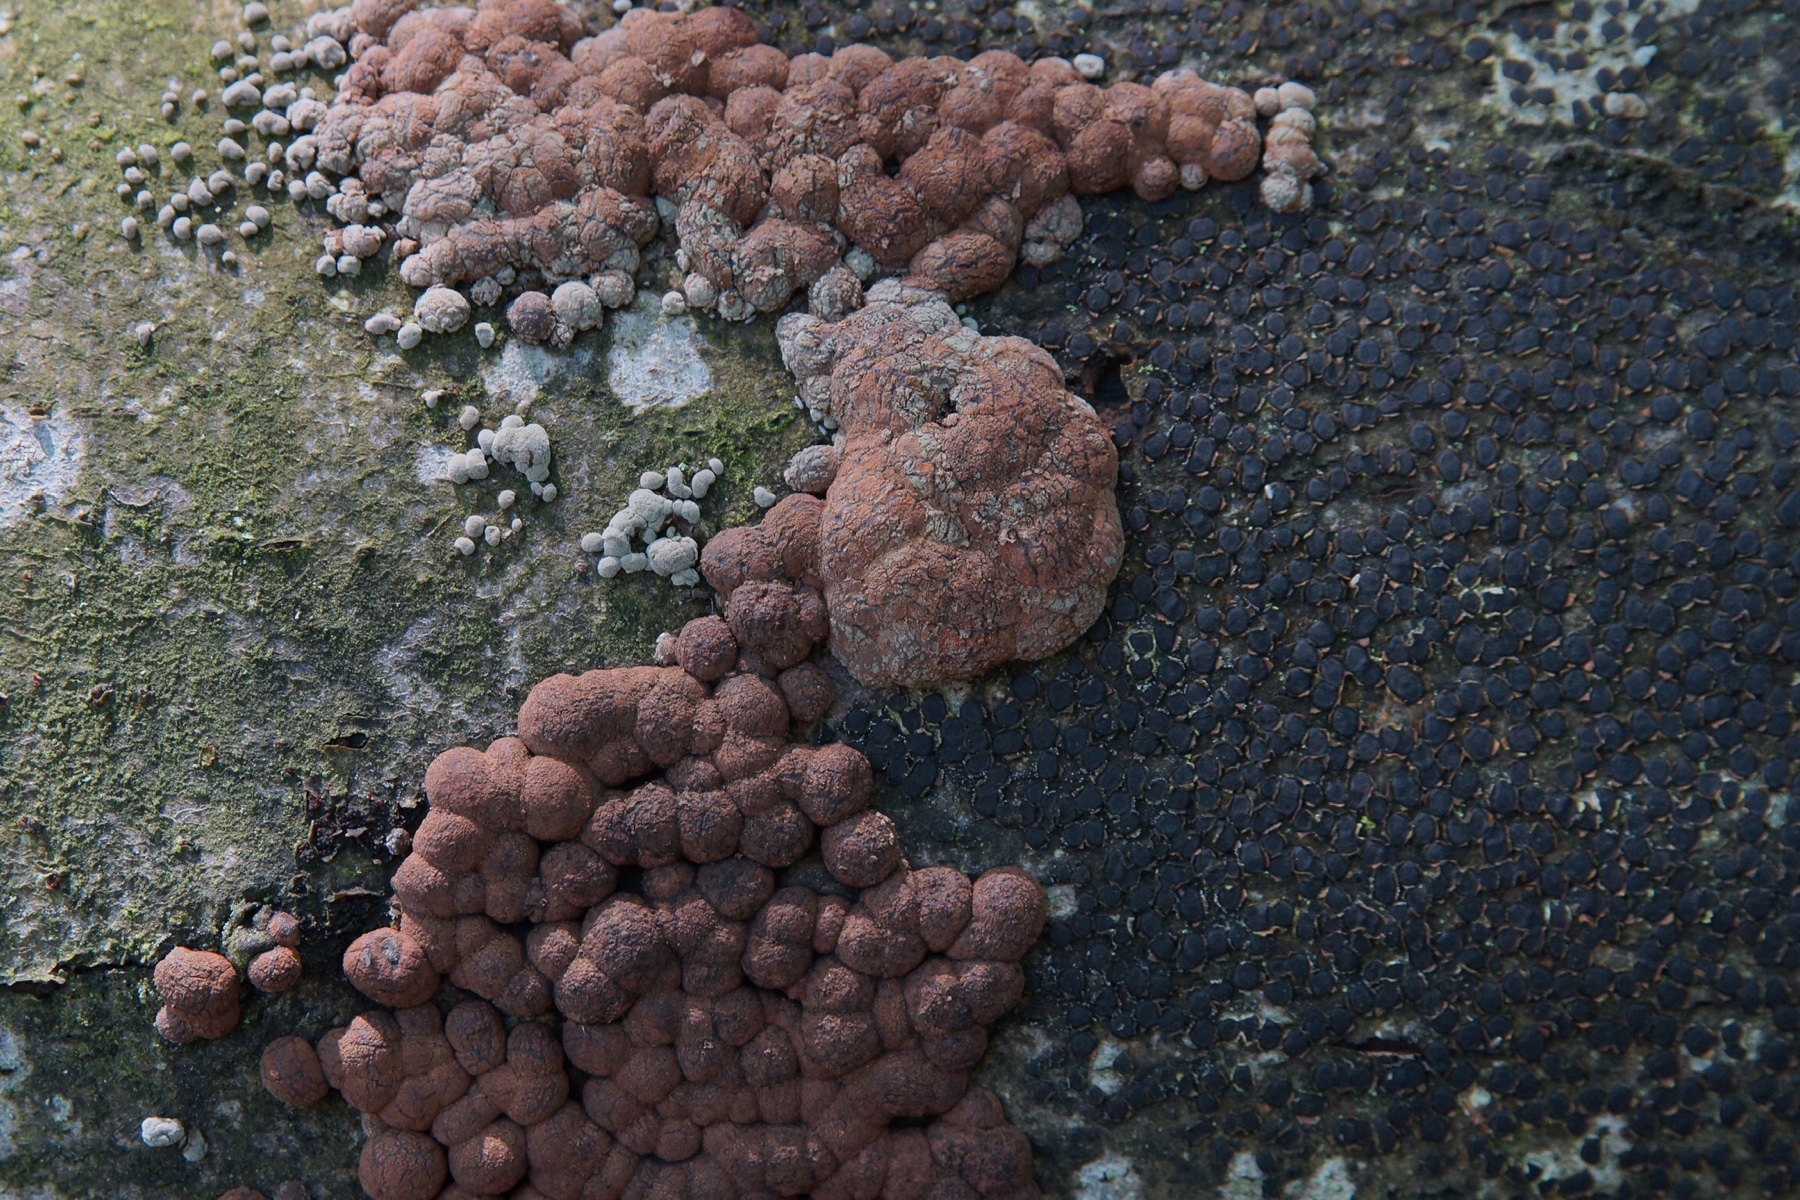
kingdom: Fungi
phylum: Ascomycota
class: Sordariomycetes
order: Xylariales
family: Hypoxylaceae
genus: Hypoxylon
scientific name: Hypoxylon fragiforme
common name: kuljordbær
